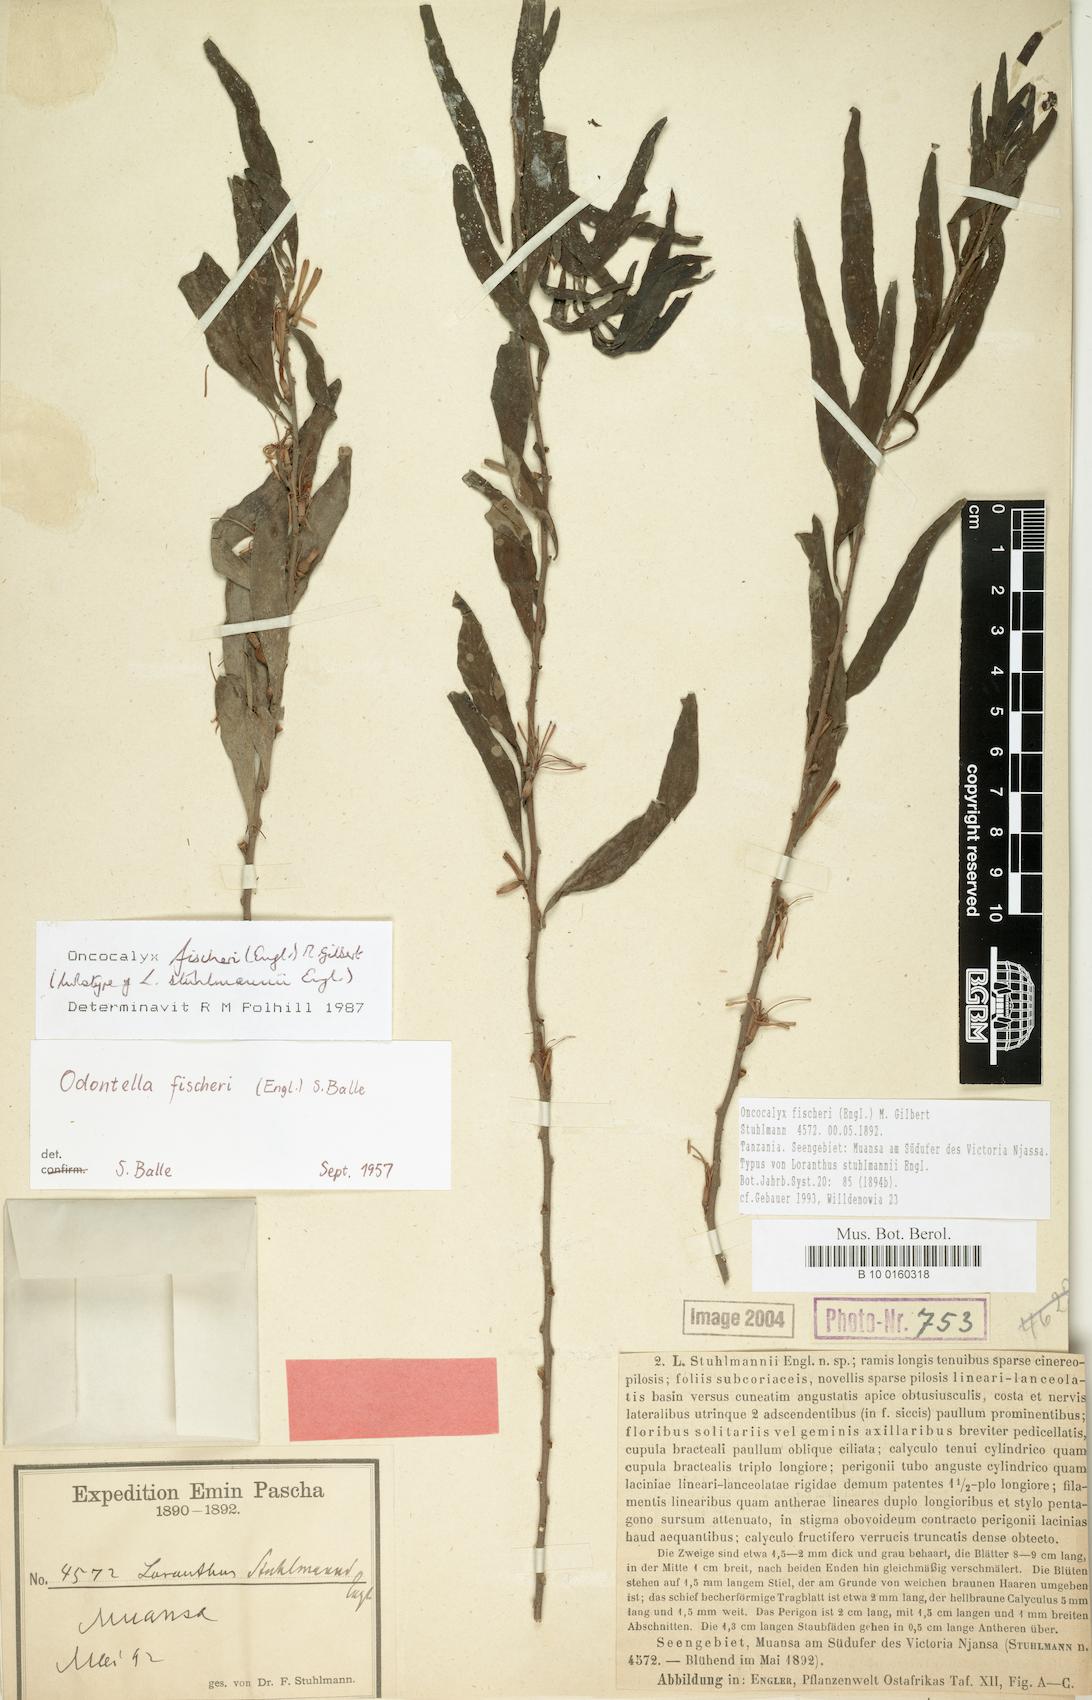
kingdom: Plantae
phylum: Tracheophyta
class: Magnoliopsida
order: Santalales
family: Loranthaceae
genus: Oncocalyx
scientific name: Oncocalyx fischeri
